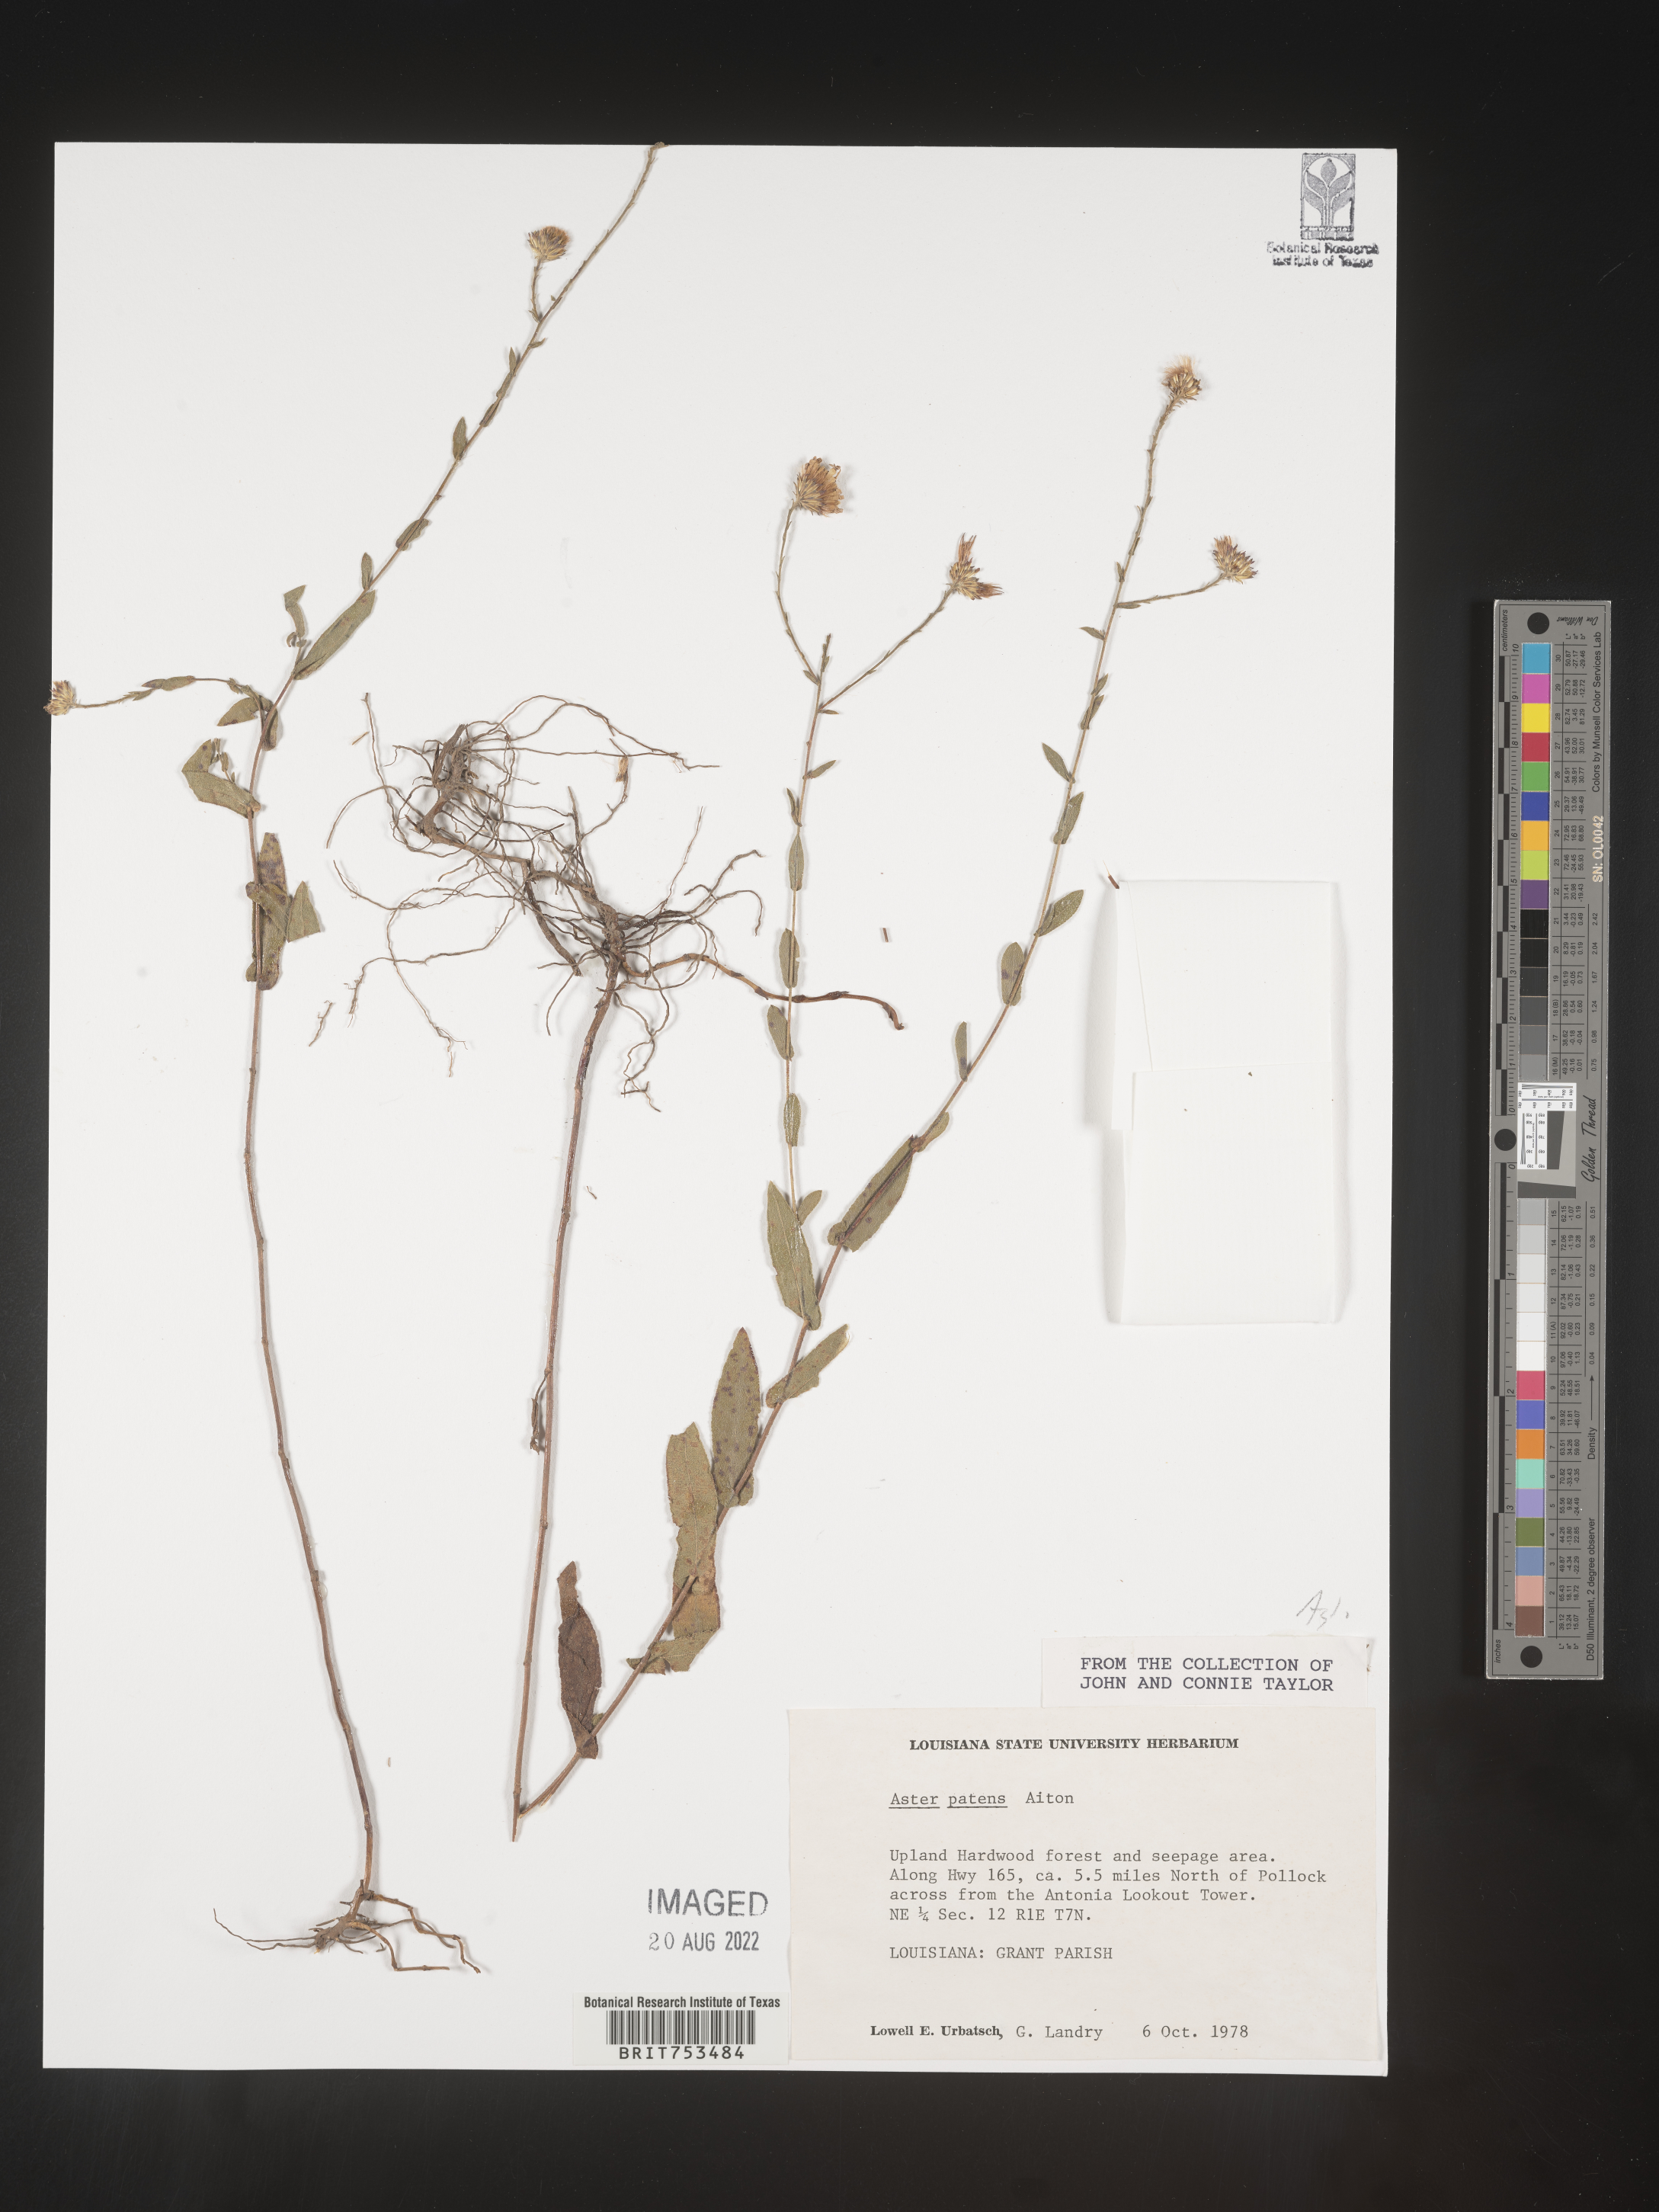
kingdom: Plantae
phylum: Tracheophyta
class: Magnoliopsida
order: Asterales
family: Asteraceae
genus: Symphyotrichum
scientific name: Symphyotrichum patens
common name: Late purple aster
